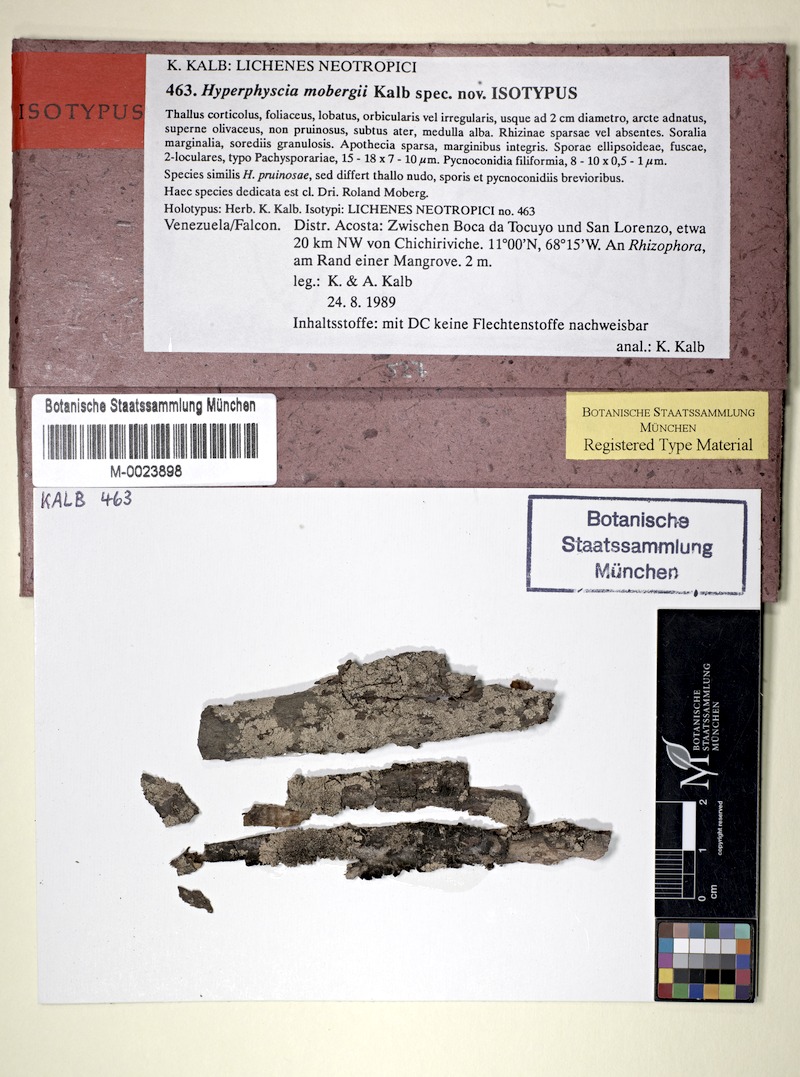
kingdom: Fungi
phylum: Ascomycota
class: Lecanoromycetes
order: Caliciales
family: Physciaceae
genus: Hyperphyscia
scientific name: Hyperphyscia mobergii
